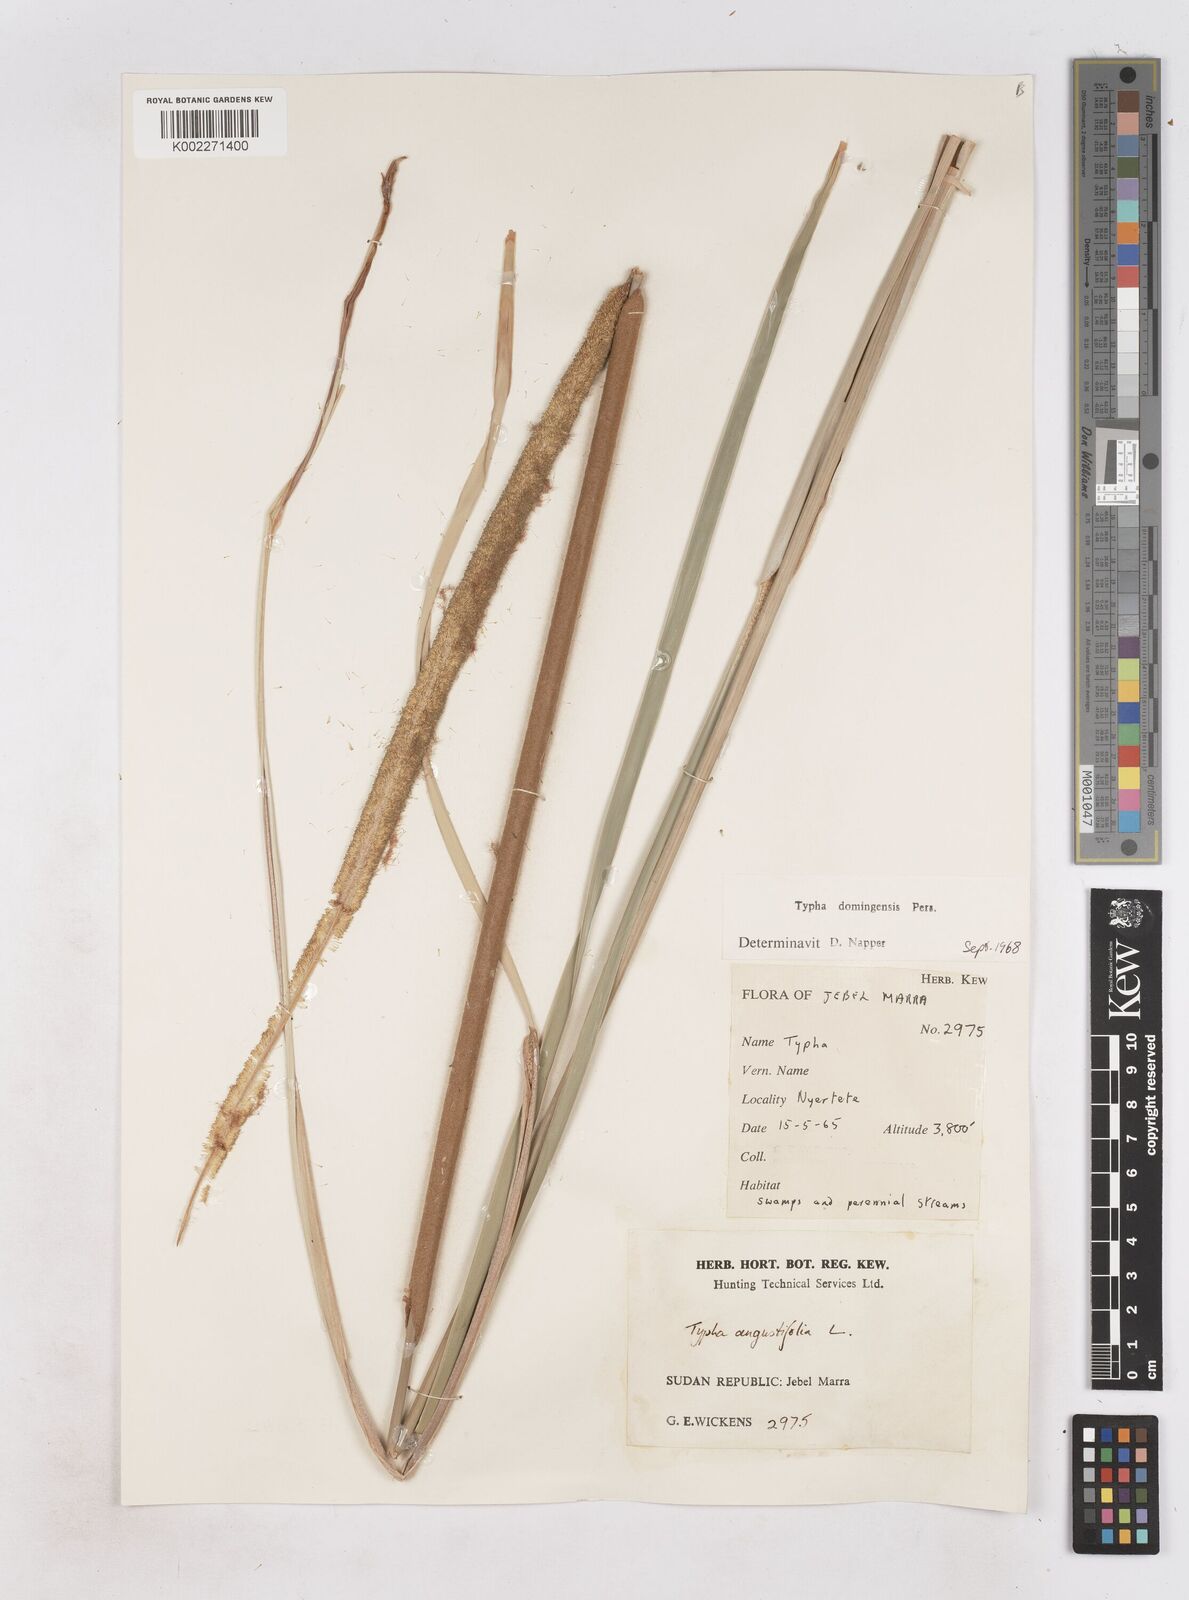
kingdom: Plantae
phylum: Tracheophyta
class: Liliopsida
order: Poales
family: Typhaceae
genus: Typha
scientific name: Typha domingensis
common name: Southern cattail
